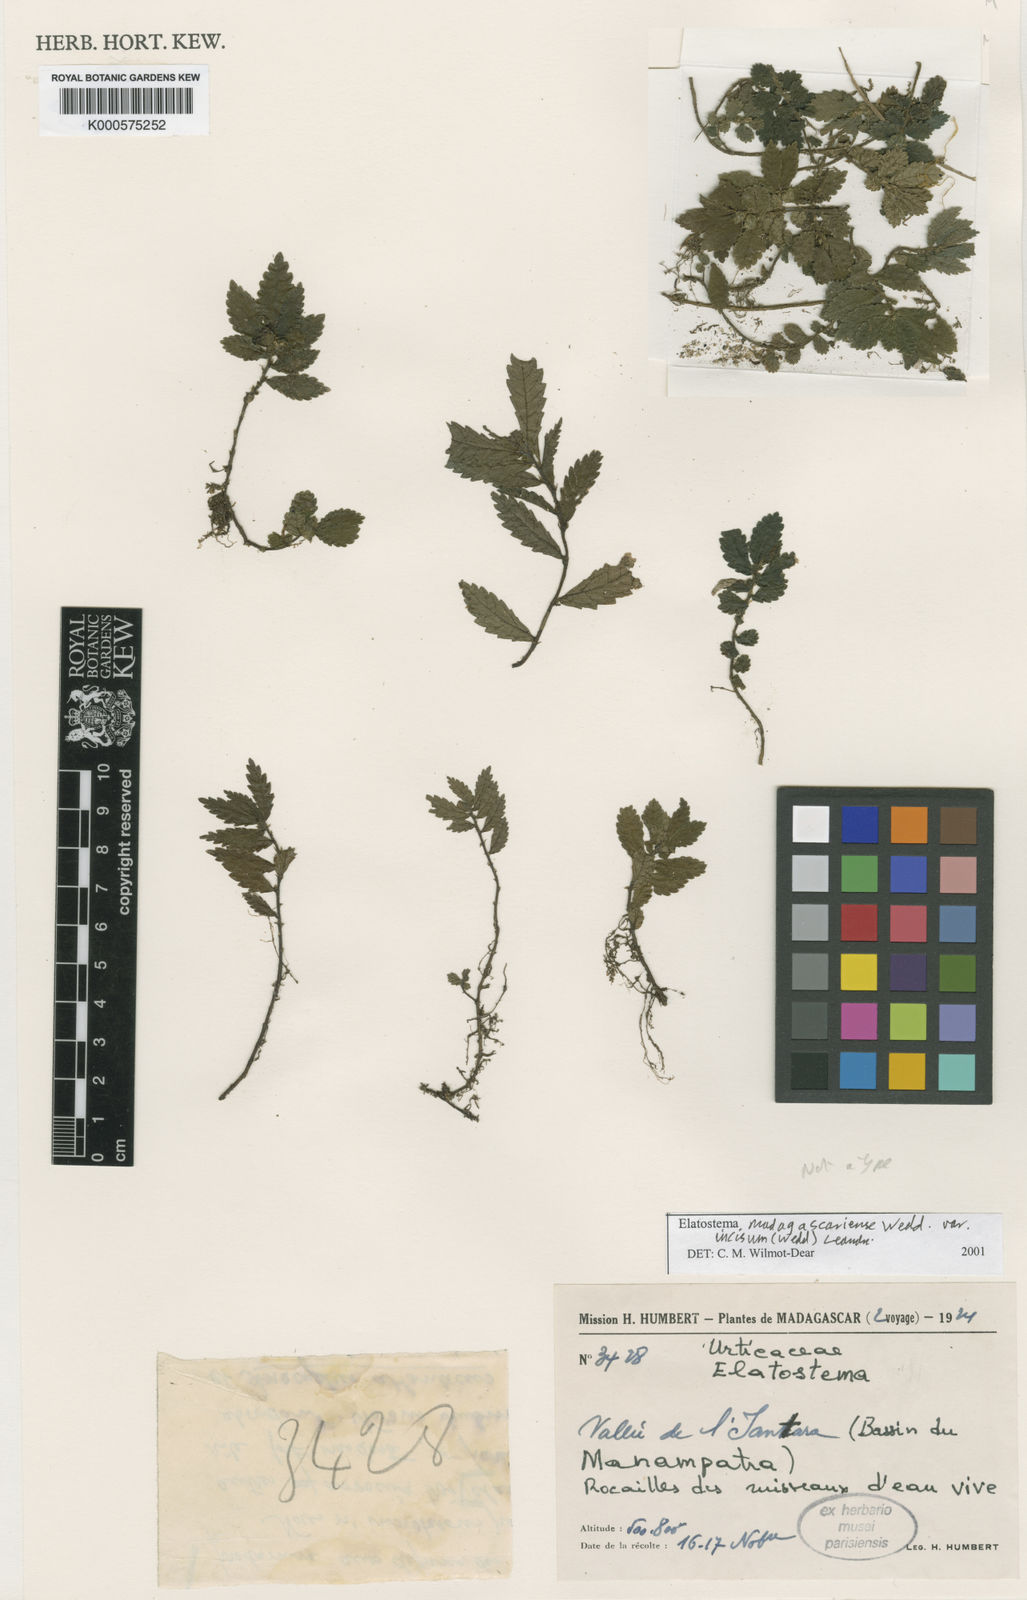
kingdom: Plantae
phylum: Tracheophyta
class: Magnoliopsida
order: Rosales
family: Urticaceae
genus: Elatostema
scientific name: Elatostema madagascariense
